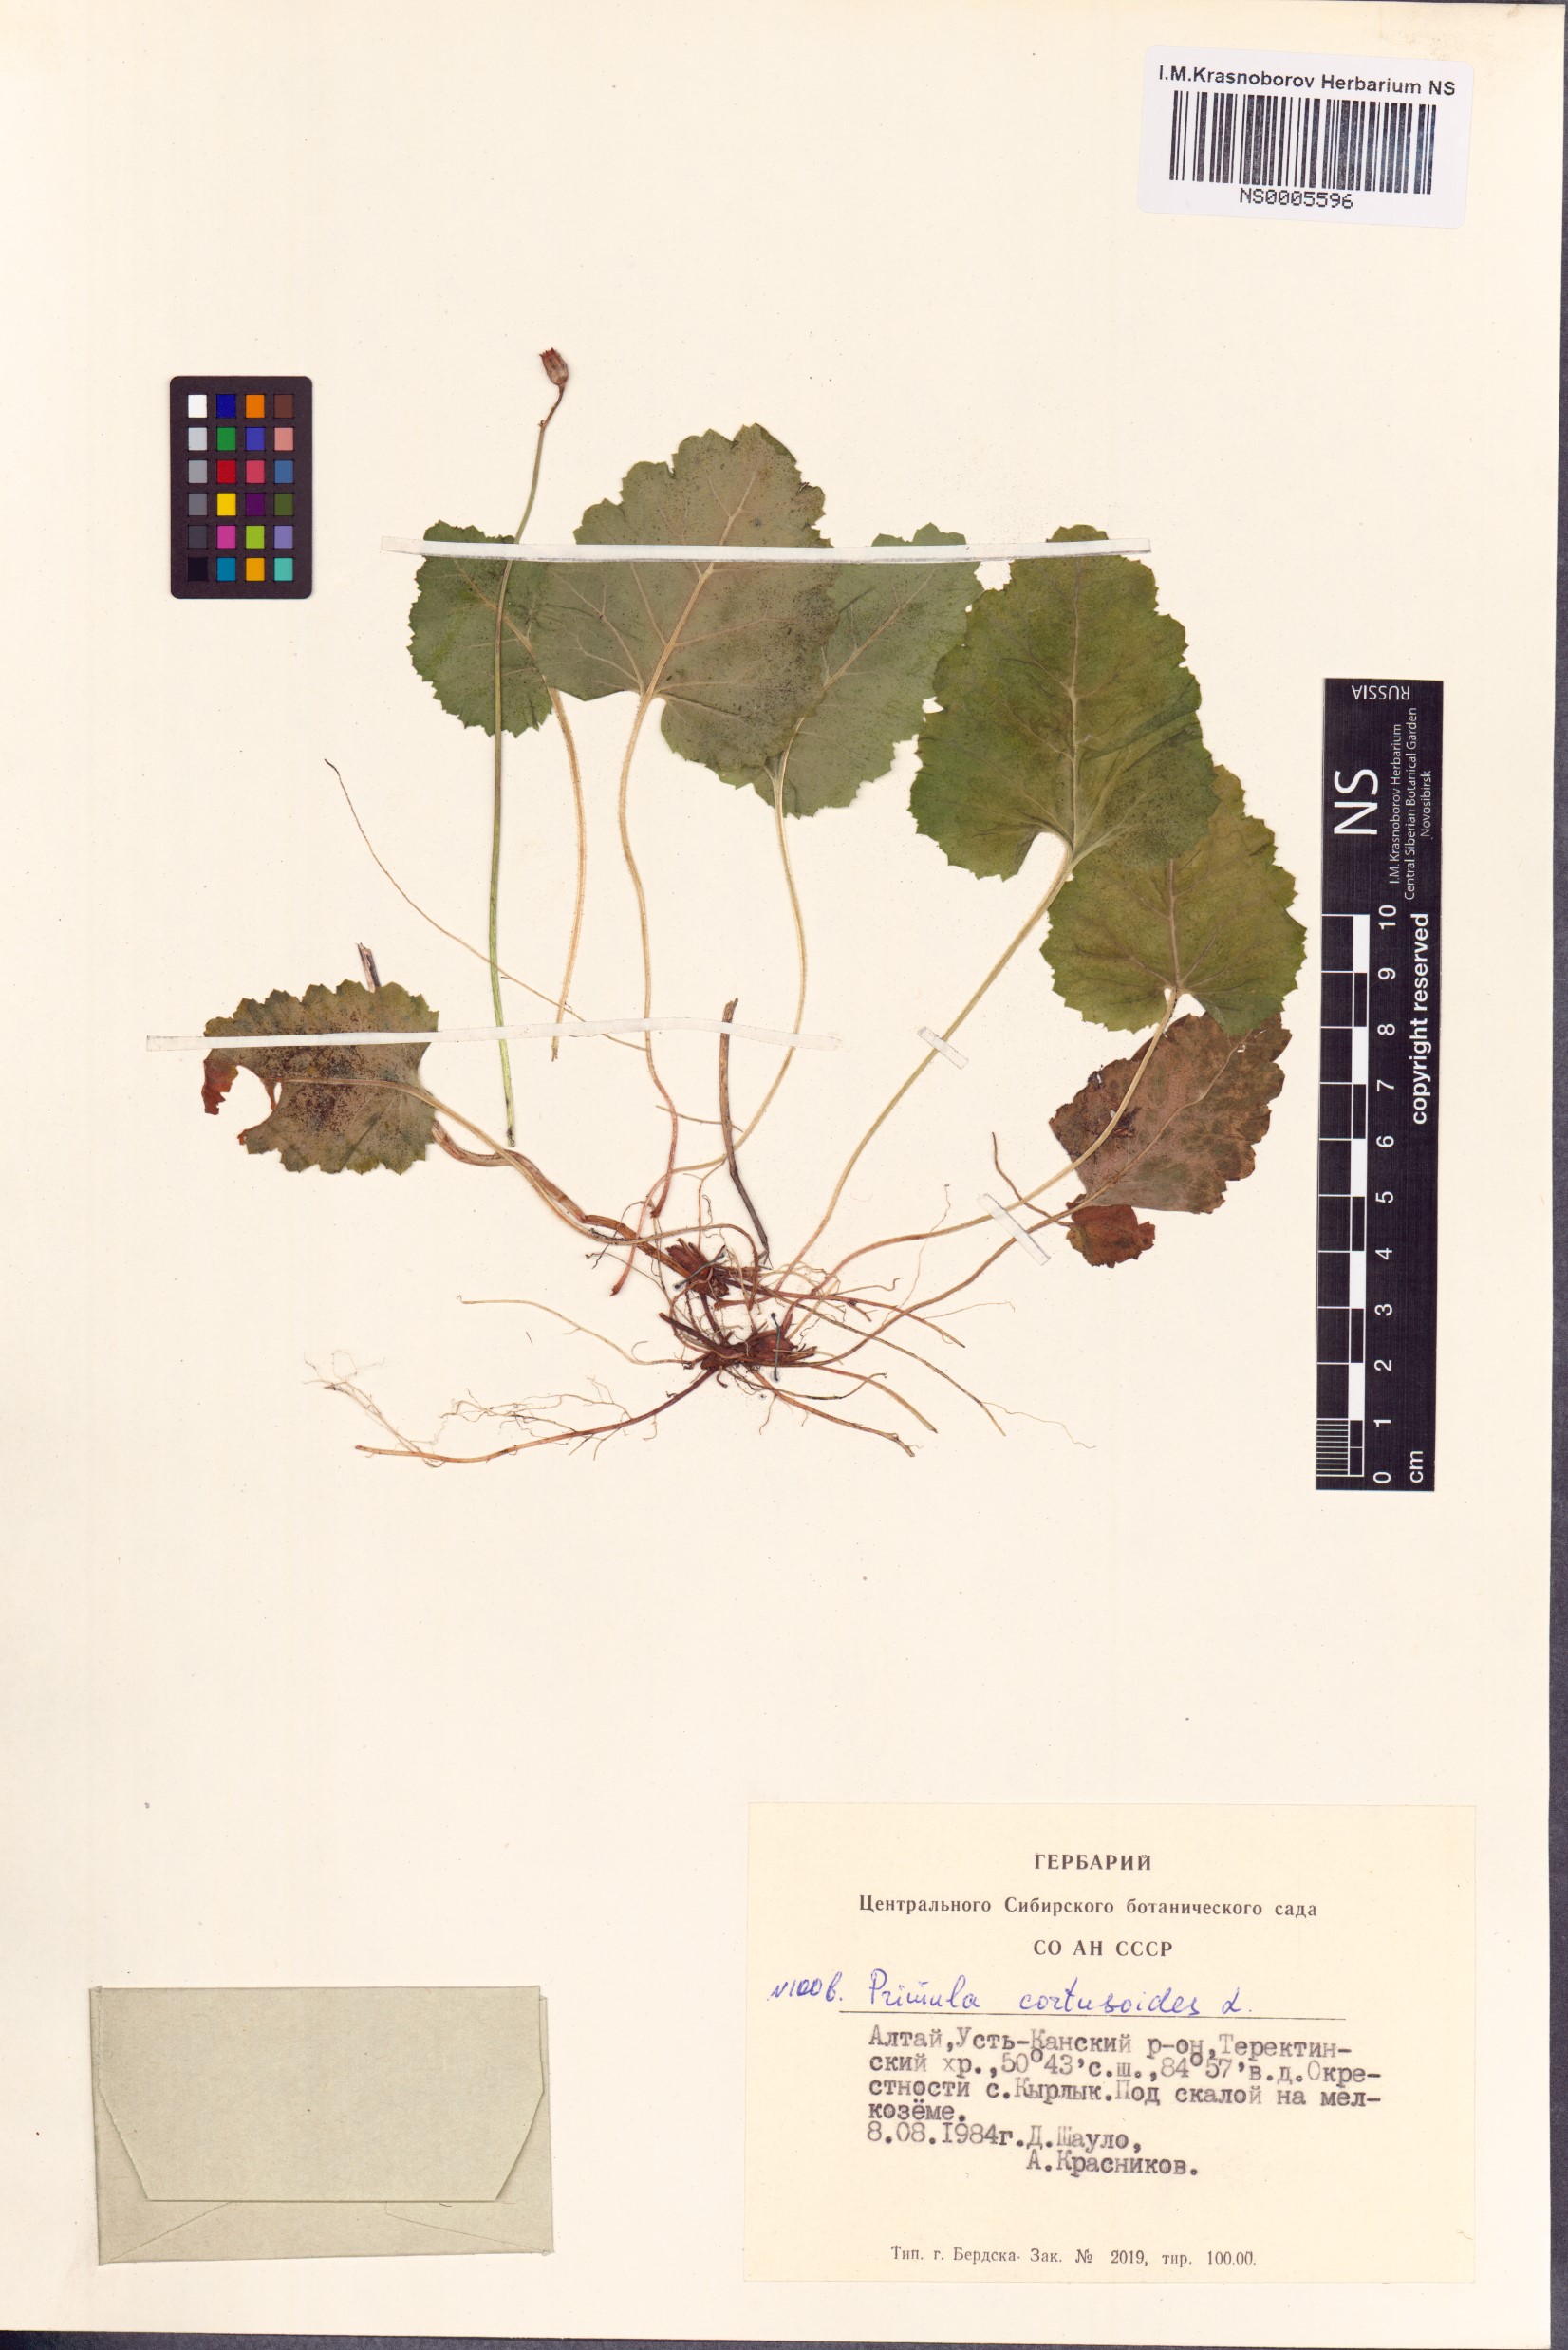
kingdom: Plantae
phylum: Tracheophyta
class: Magnoliopsida
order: Ericales
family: Primulaceae
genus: Primula
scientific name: Primula cortusoides
